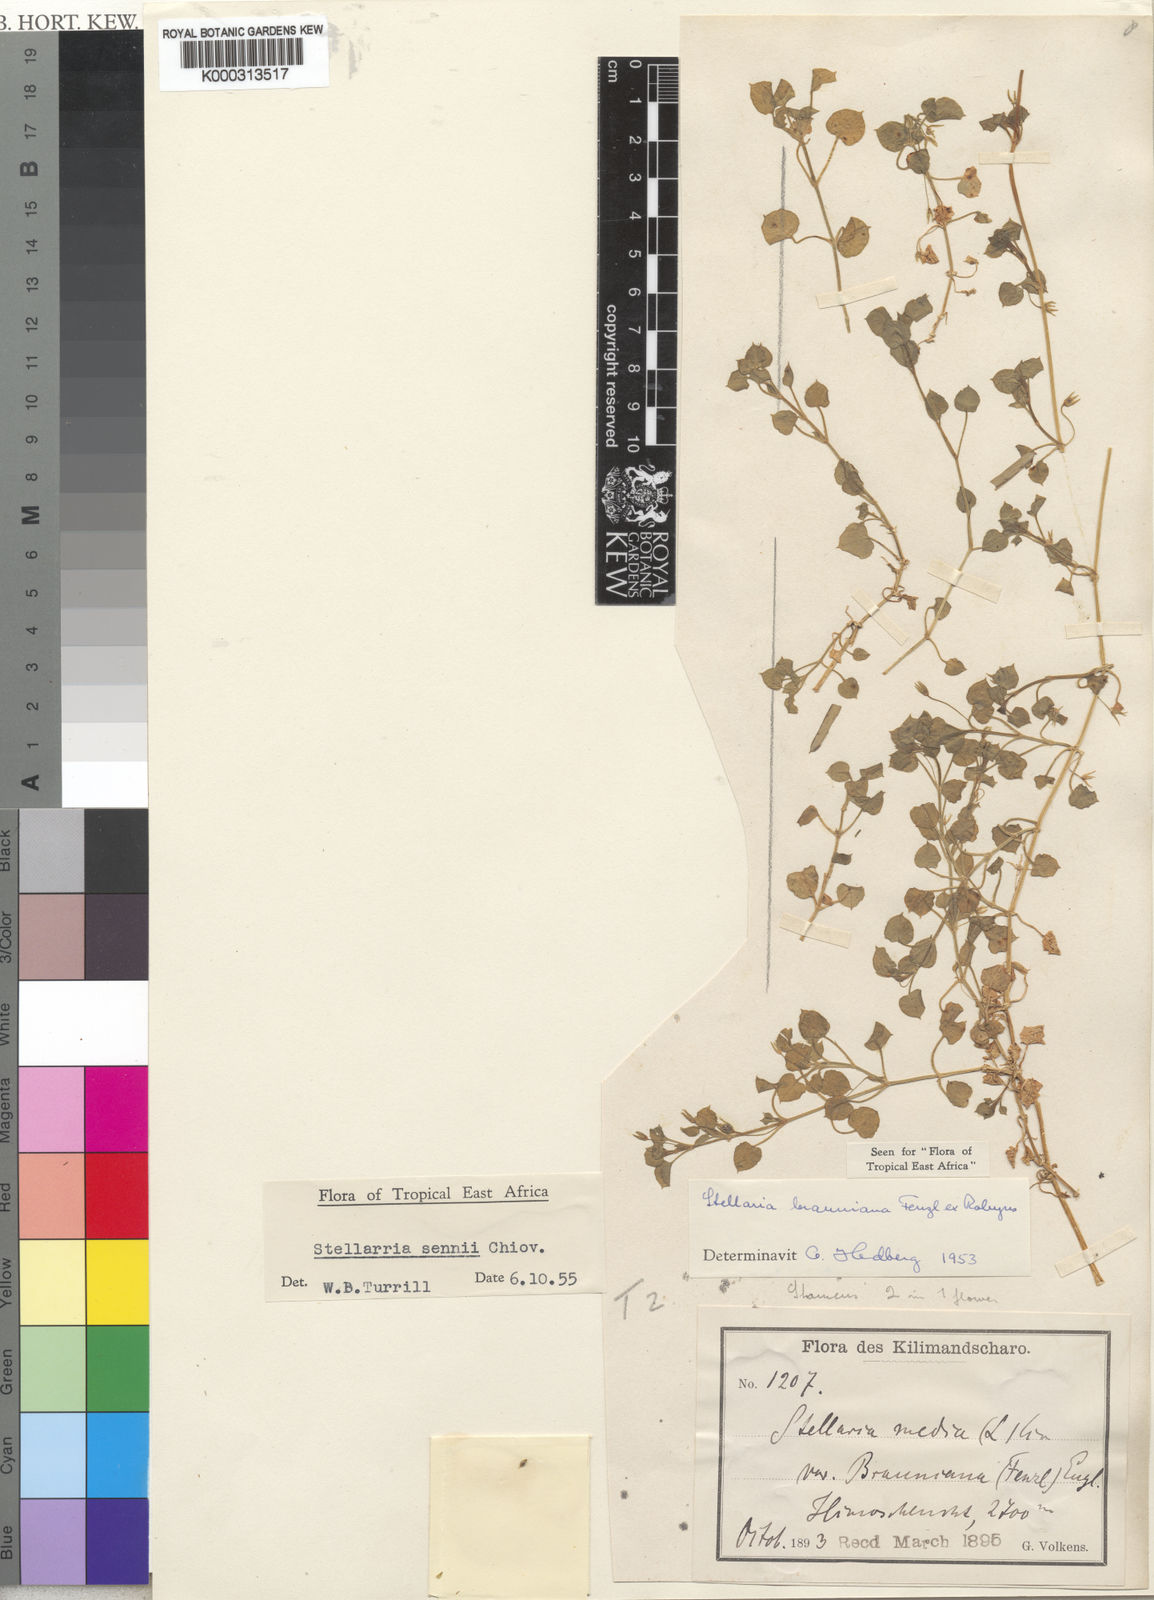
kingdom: Plantae
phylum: Tracheophyta
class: Magnoliopsida
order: Caryophyllales
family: Caryophyllaceae
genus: Stellaria
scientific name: Stellaria sennii
